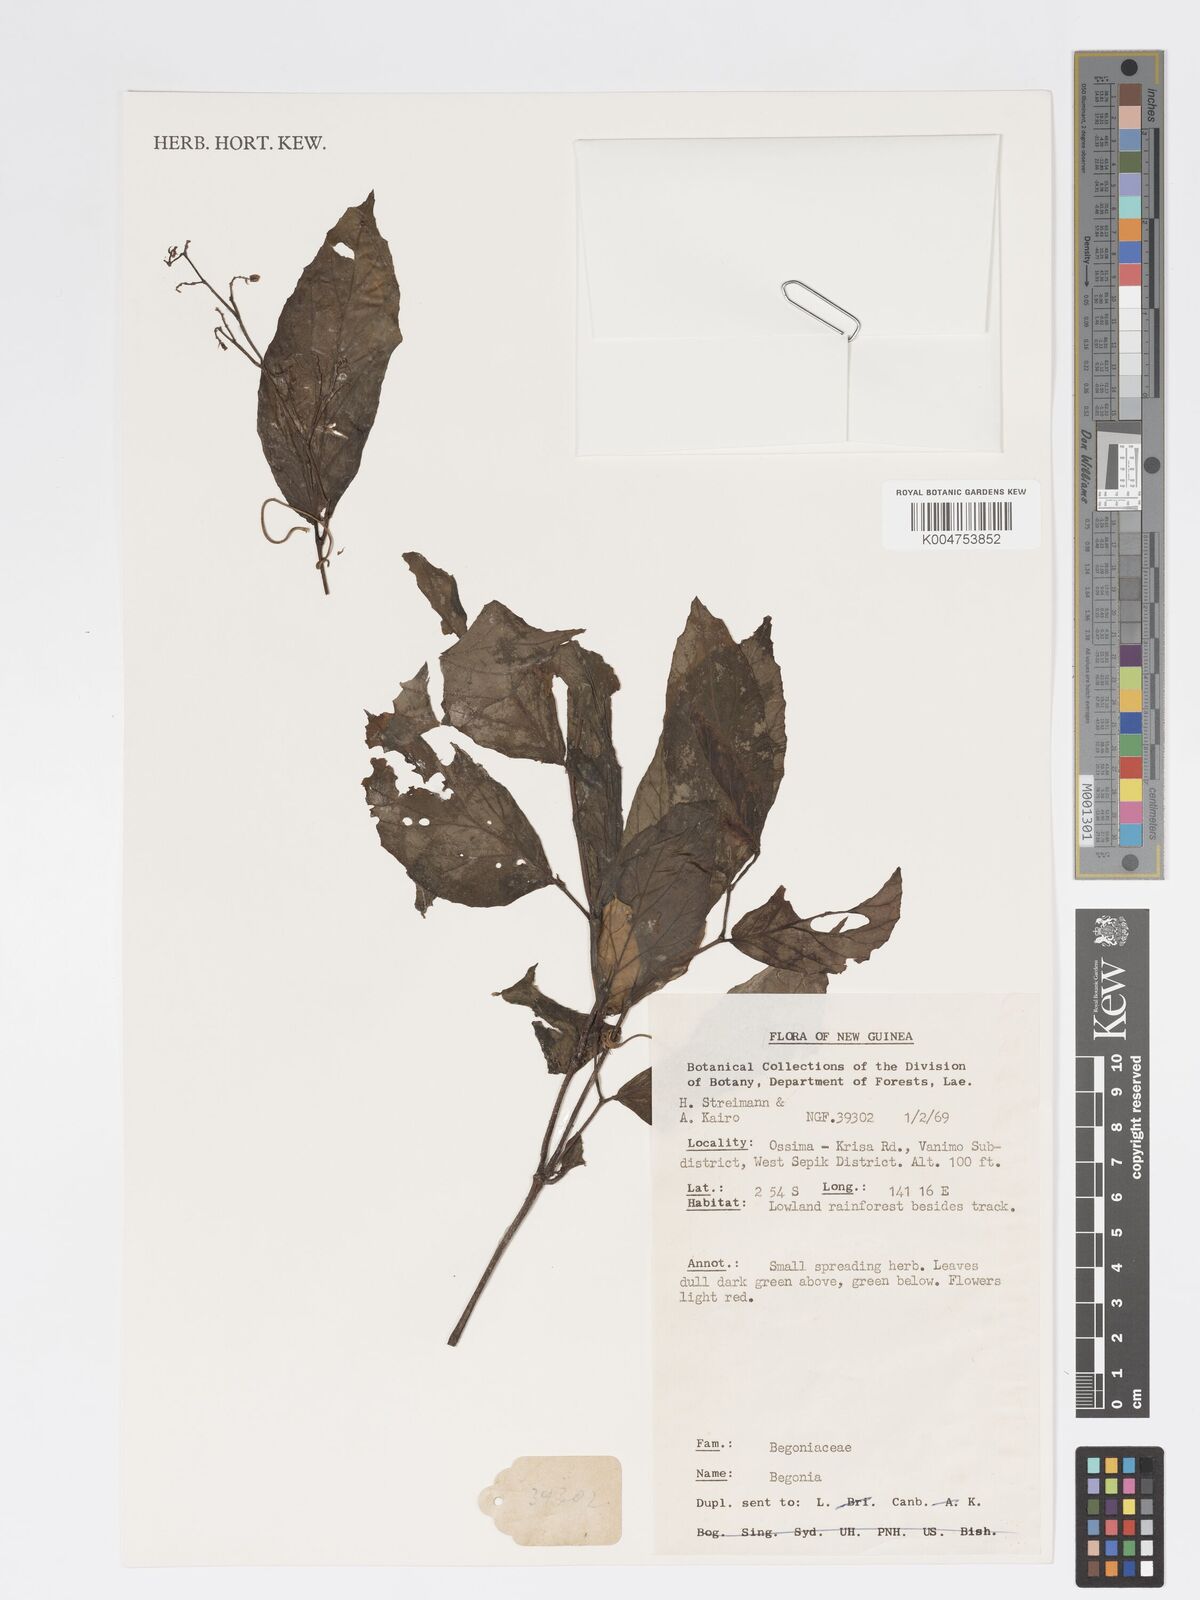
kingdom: Plantae
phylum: Tracheophyta
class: Magnoliopsida
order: Cucurbitales
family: Begoniaceae
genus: Begonia
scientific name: Begonia
